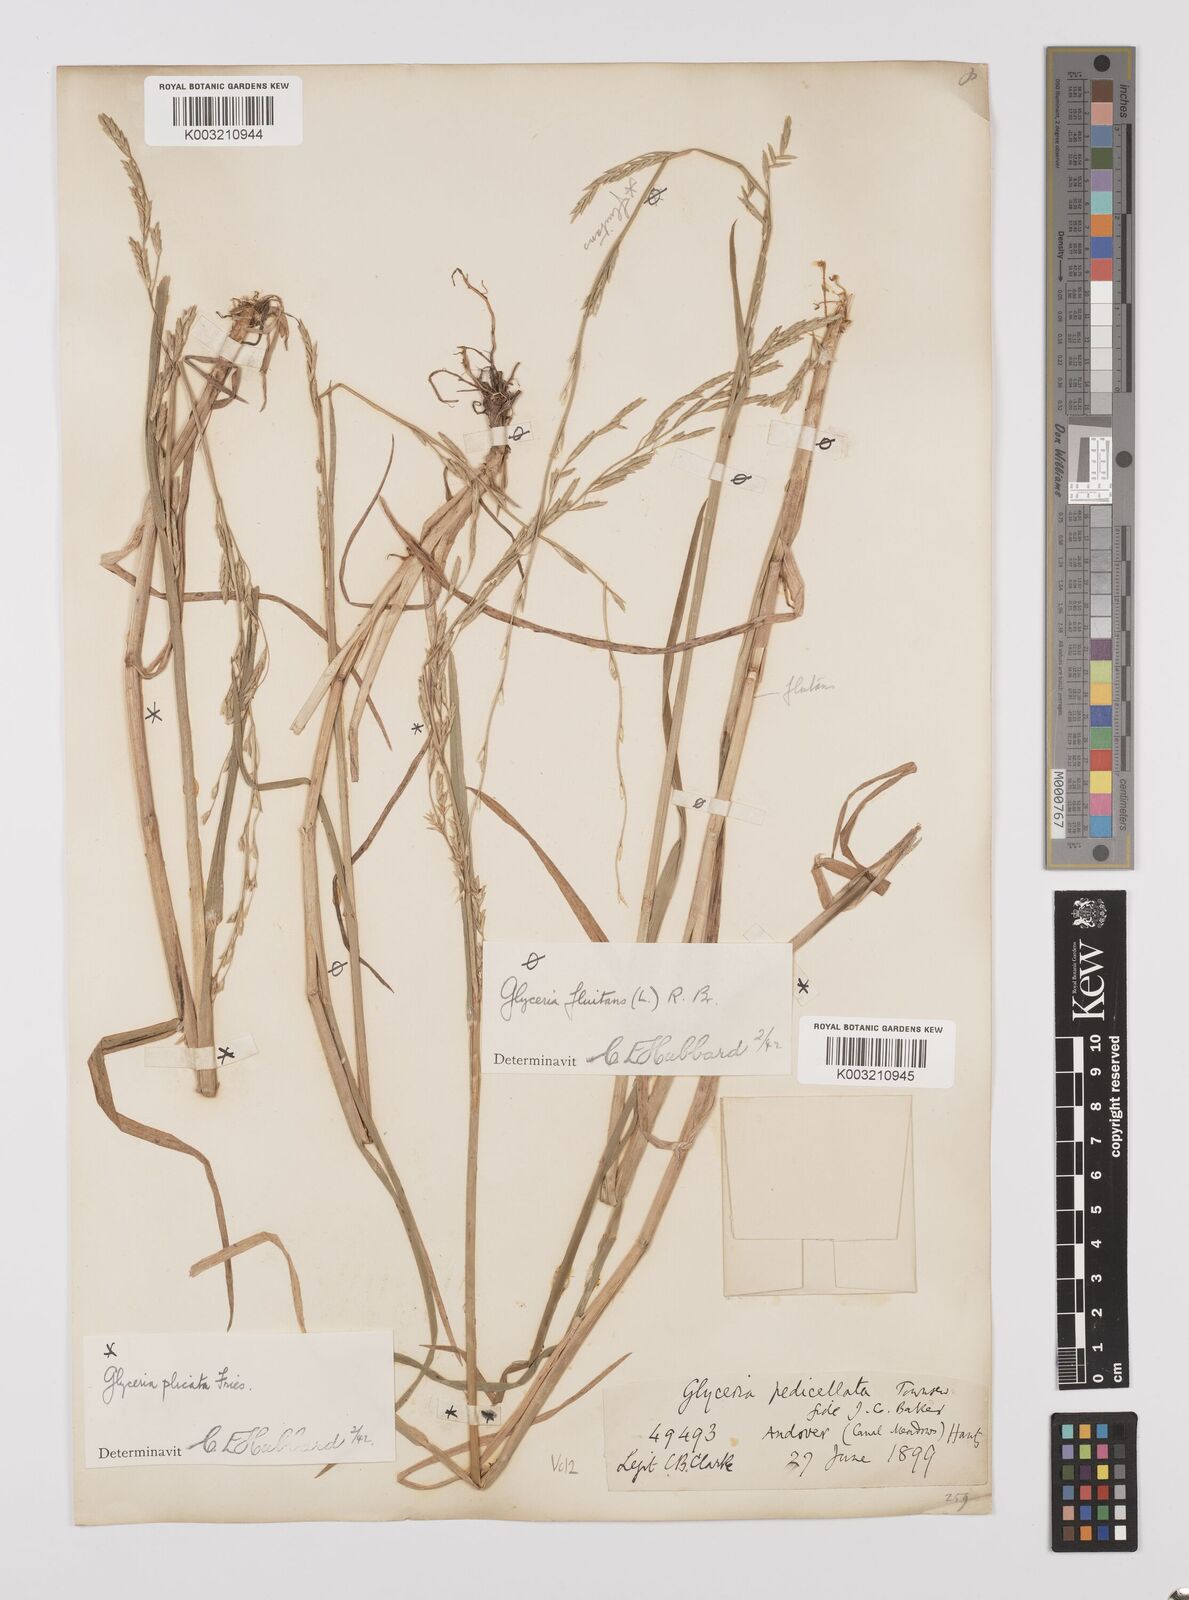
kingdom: Plantae
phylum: Tracheophyta
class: Liliopsida
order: Poales
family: Poaceae
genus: Glyceria
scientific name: Glyceria notata
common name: Plicate sweet-grass
